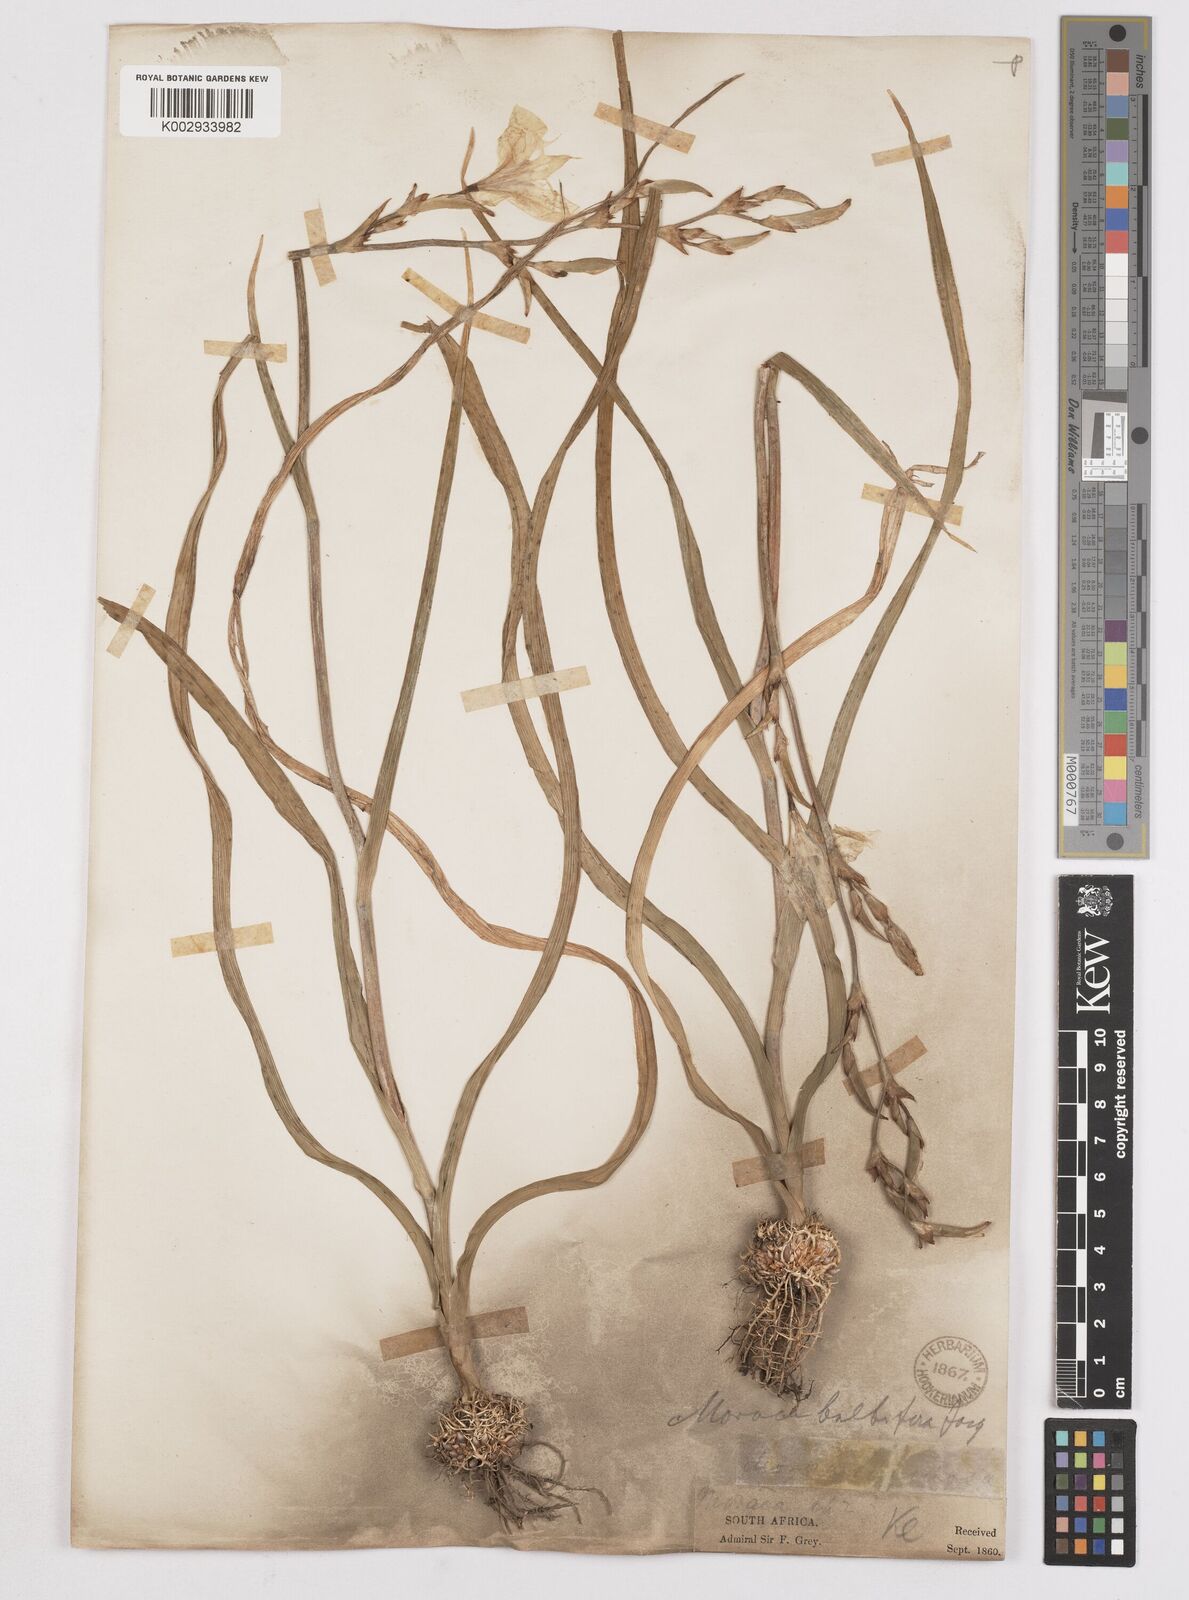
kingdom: Plantae
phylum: Tracheophyta
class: Liliopsida
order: Asparagales
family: Iridaceae
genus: Moraea
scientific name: Moraea ramosissima
